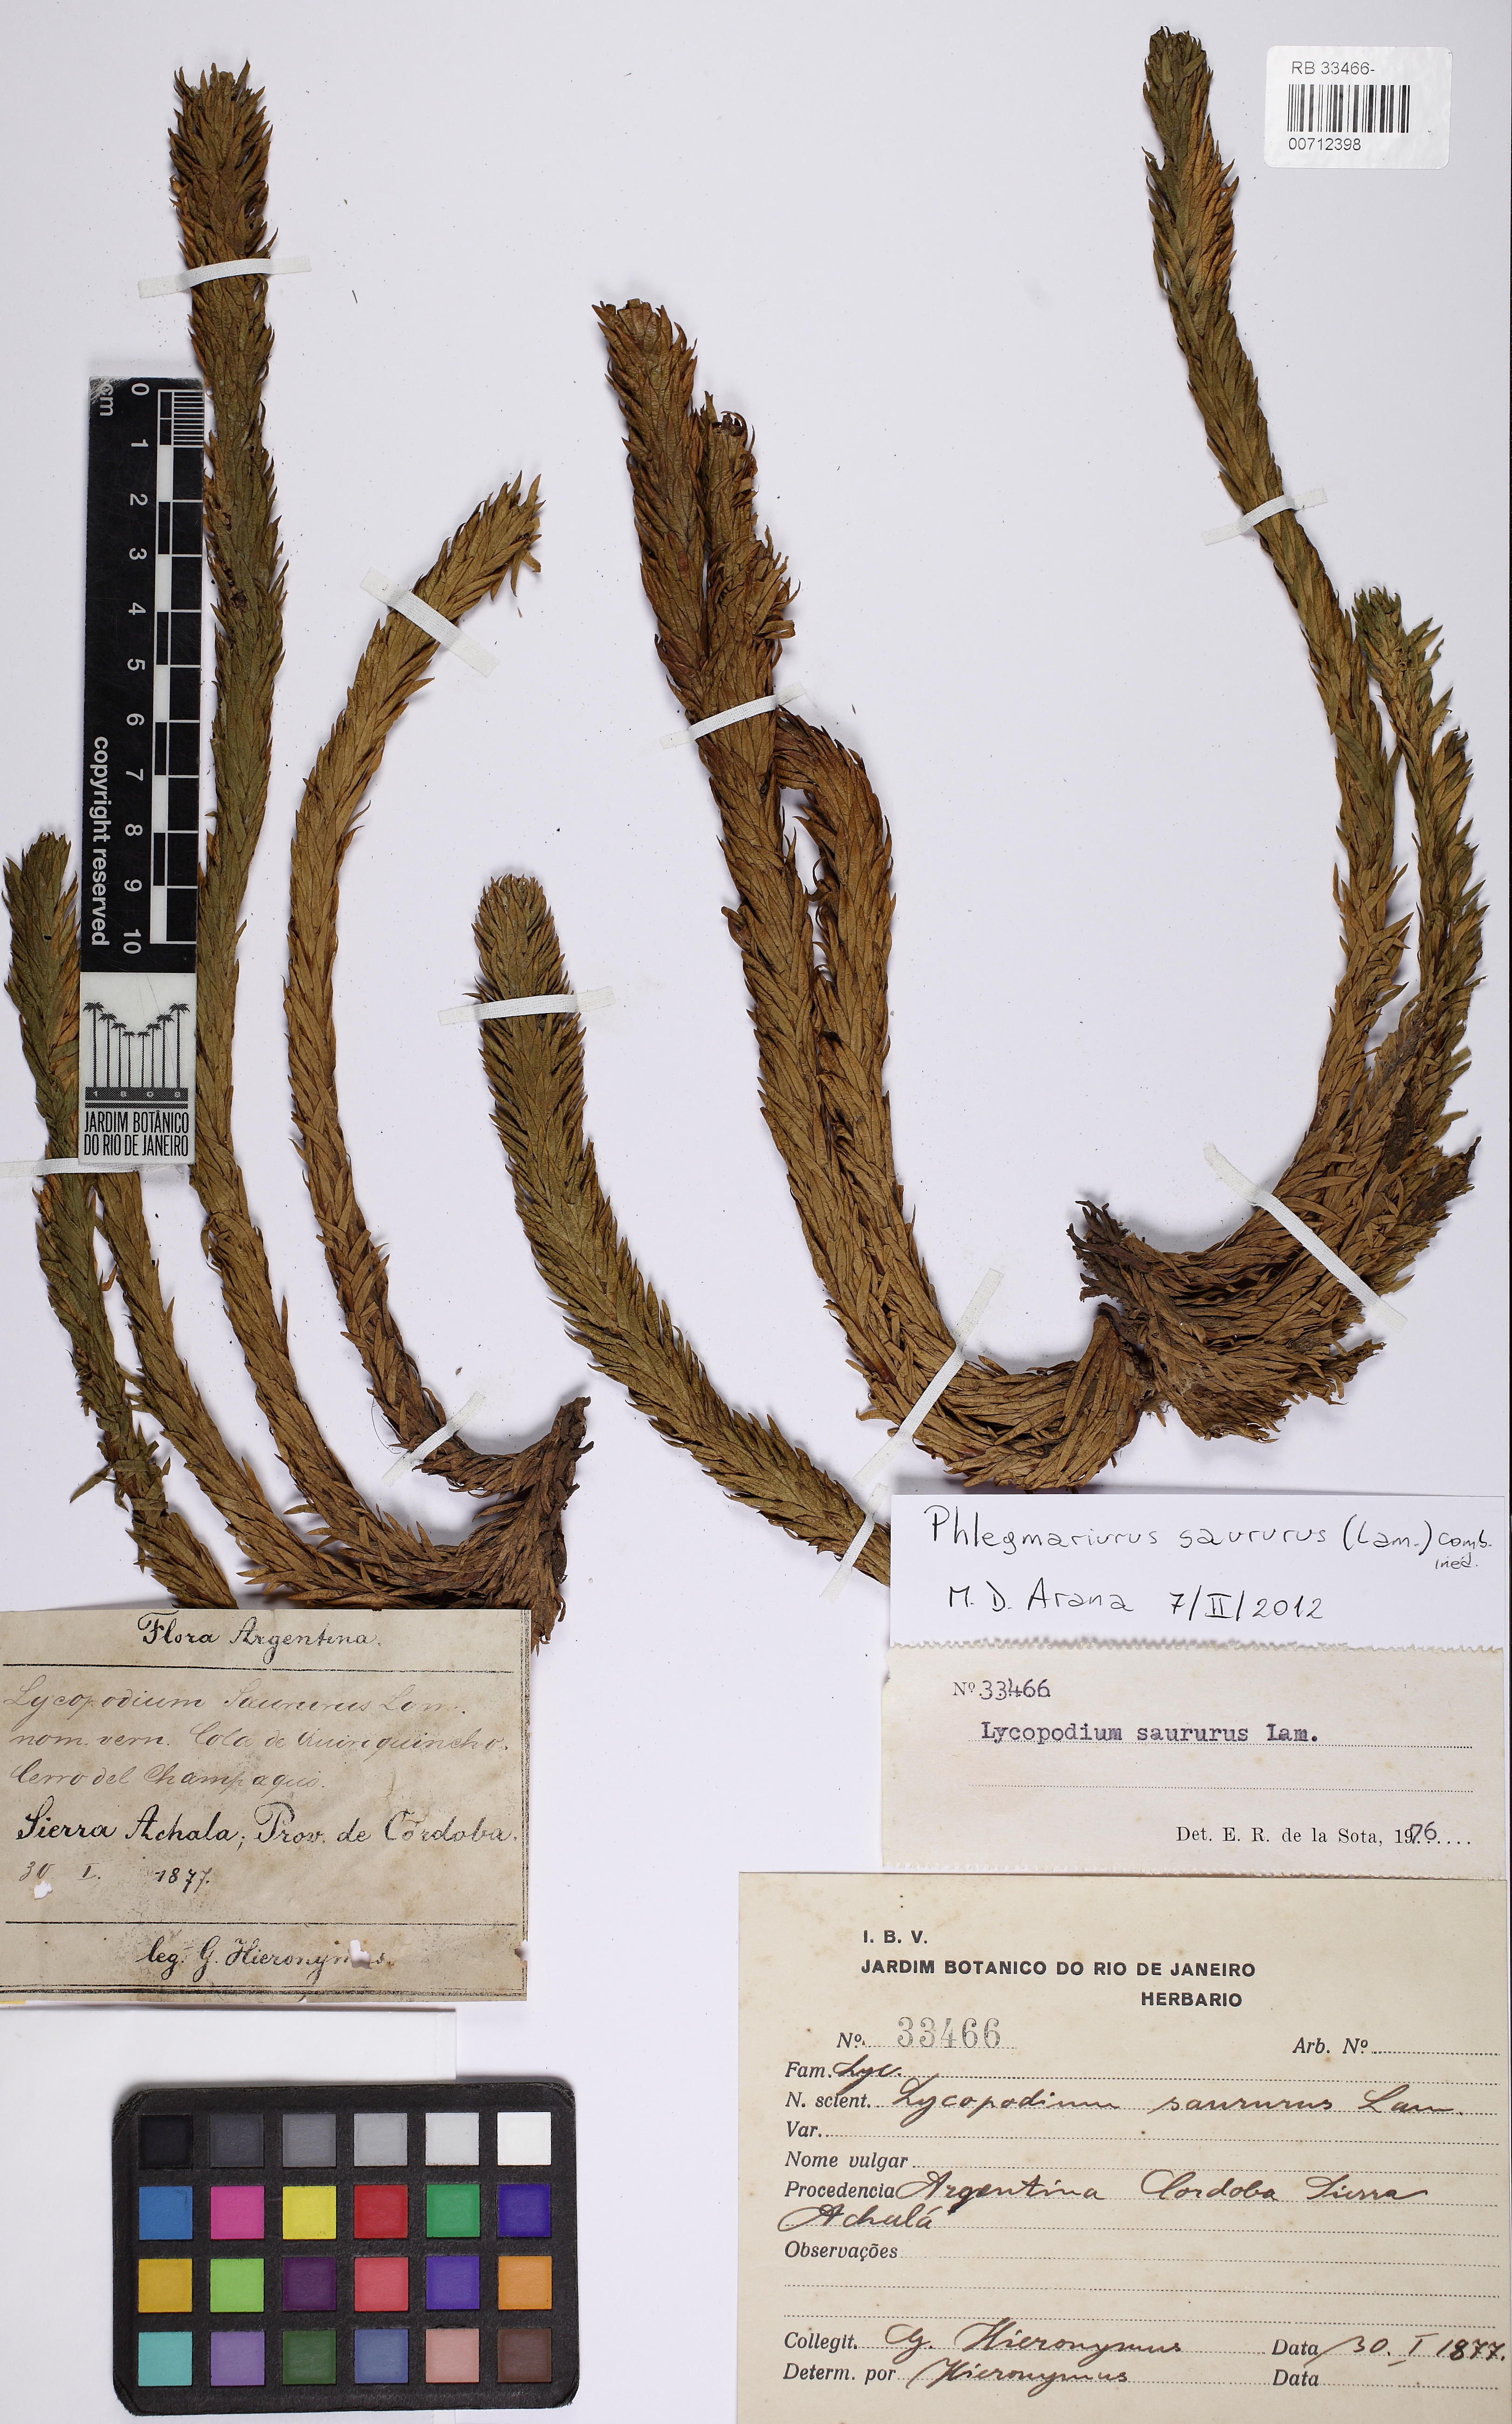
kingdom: Plantae
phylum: Tracheophyta
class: Lycopodiopsida
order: Lycopodiales
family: Lycopodiaceae
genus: Phlegmariurus
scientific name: Phlegmariurus saururus
